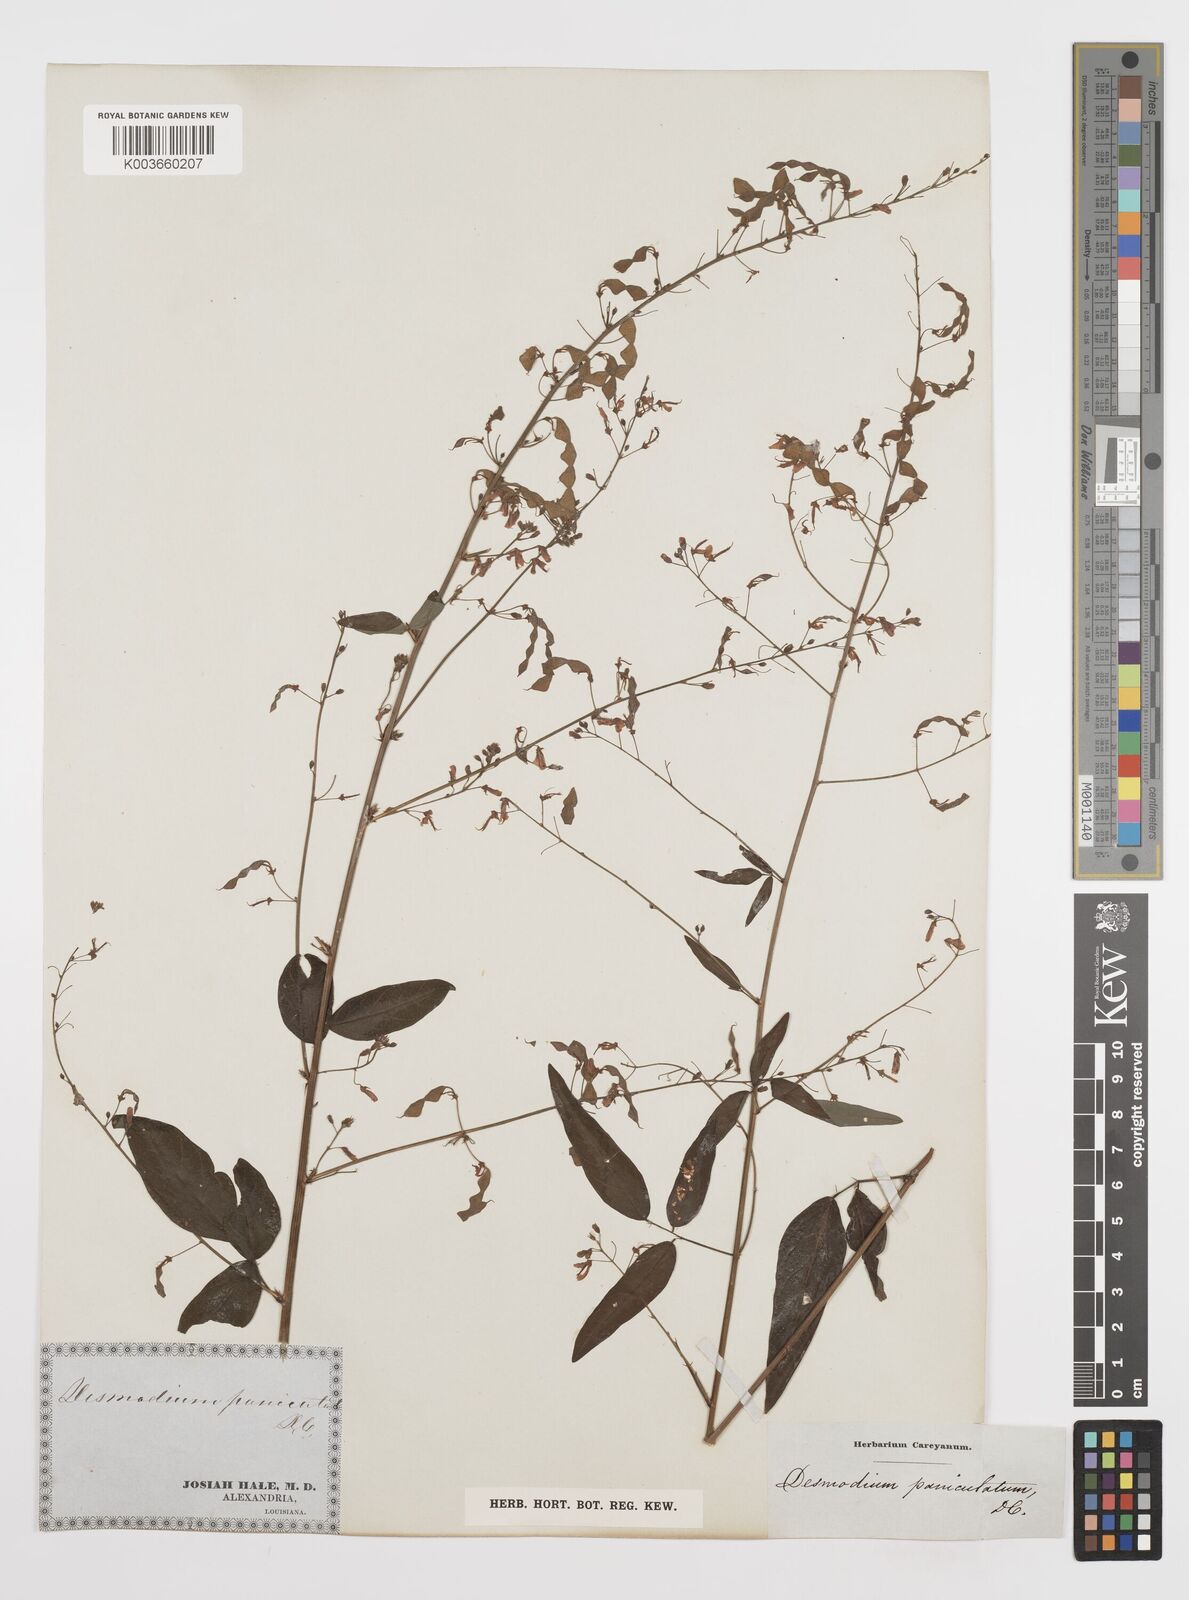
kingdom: Plantae
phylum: Tracheophyta
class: Magnoliopsida
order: Fabales
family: Fabaceae
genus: Desmodium
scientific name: Desmodium paniculatum
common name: Panicled tick-clover
